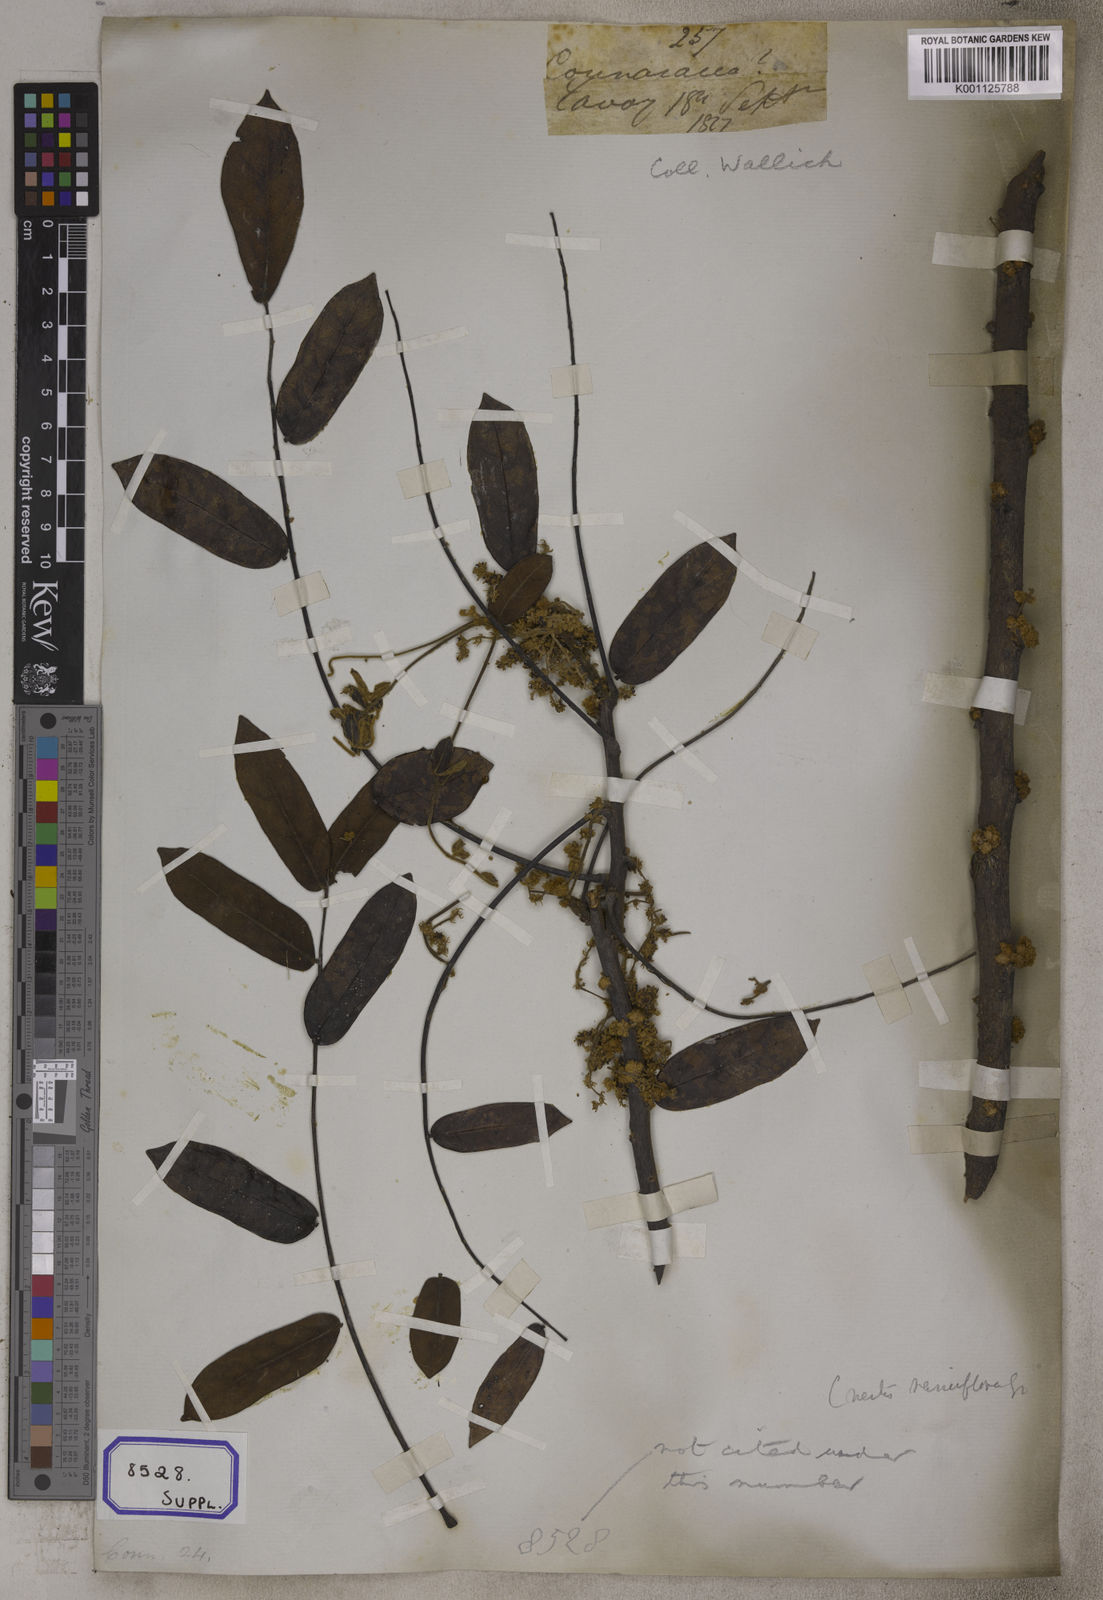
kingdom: Plantae
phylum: Tracheophyta
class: Magnoliopsida
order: Oxalidales
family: Connaraceae
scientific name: Connaraceae
